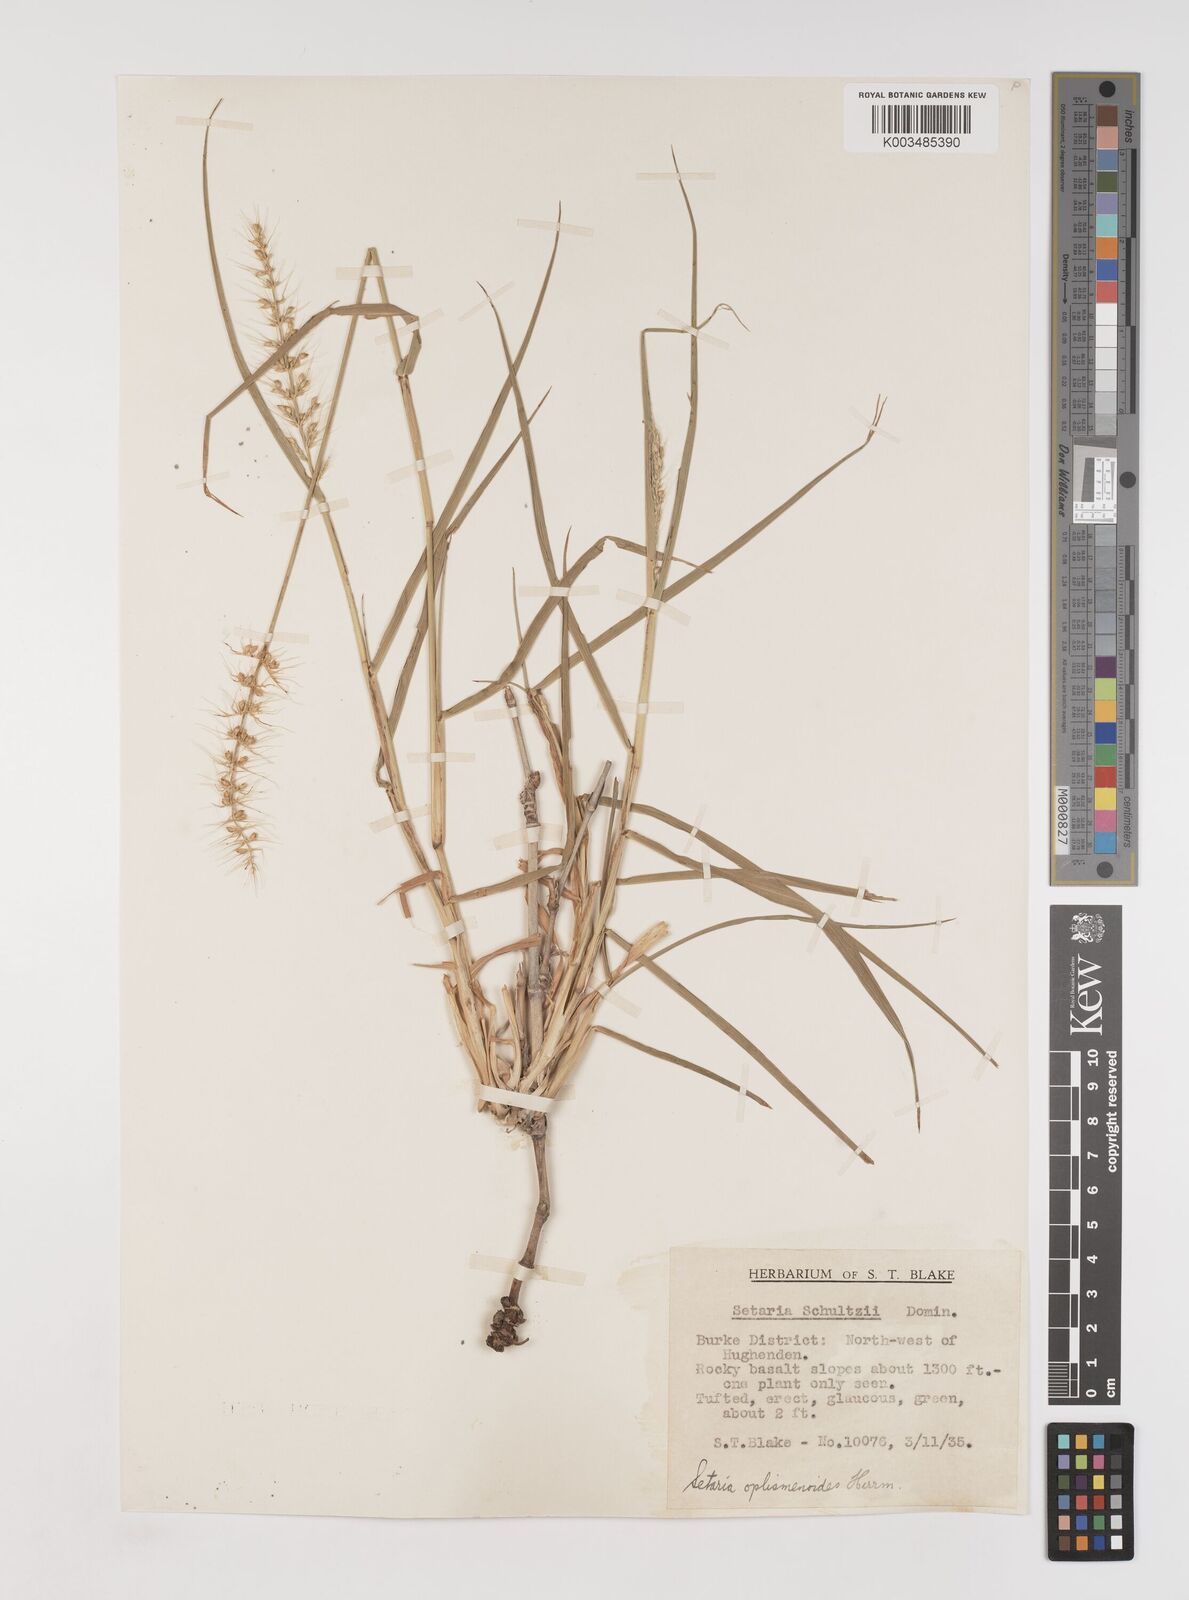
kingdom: Plantae
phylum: Tracheophyta
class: Liliopsida
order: Poales
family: Poaceae
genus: Setaria
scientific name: Setaria oplismenoides
